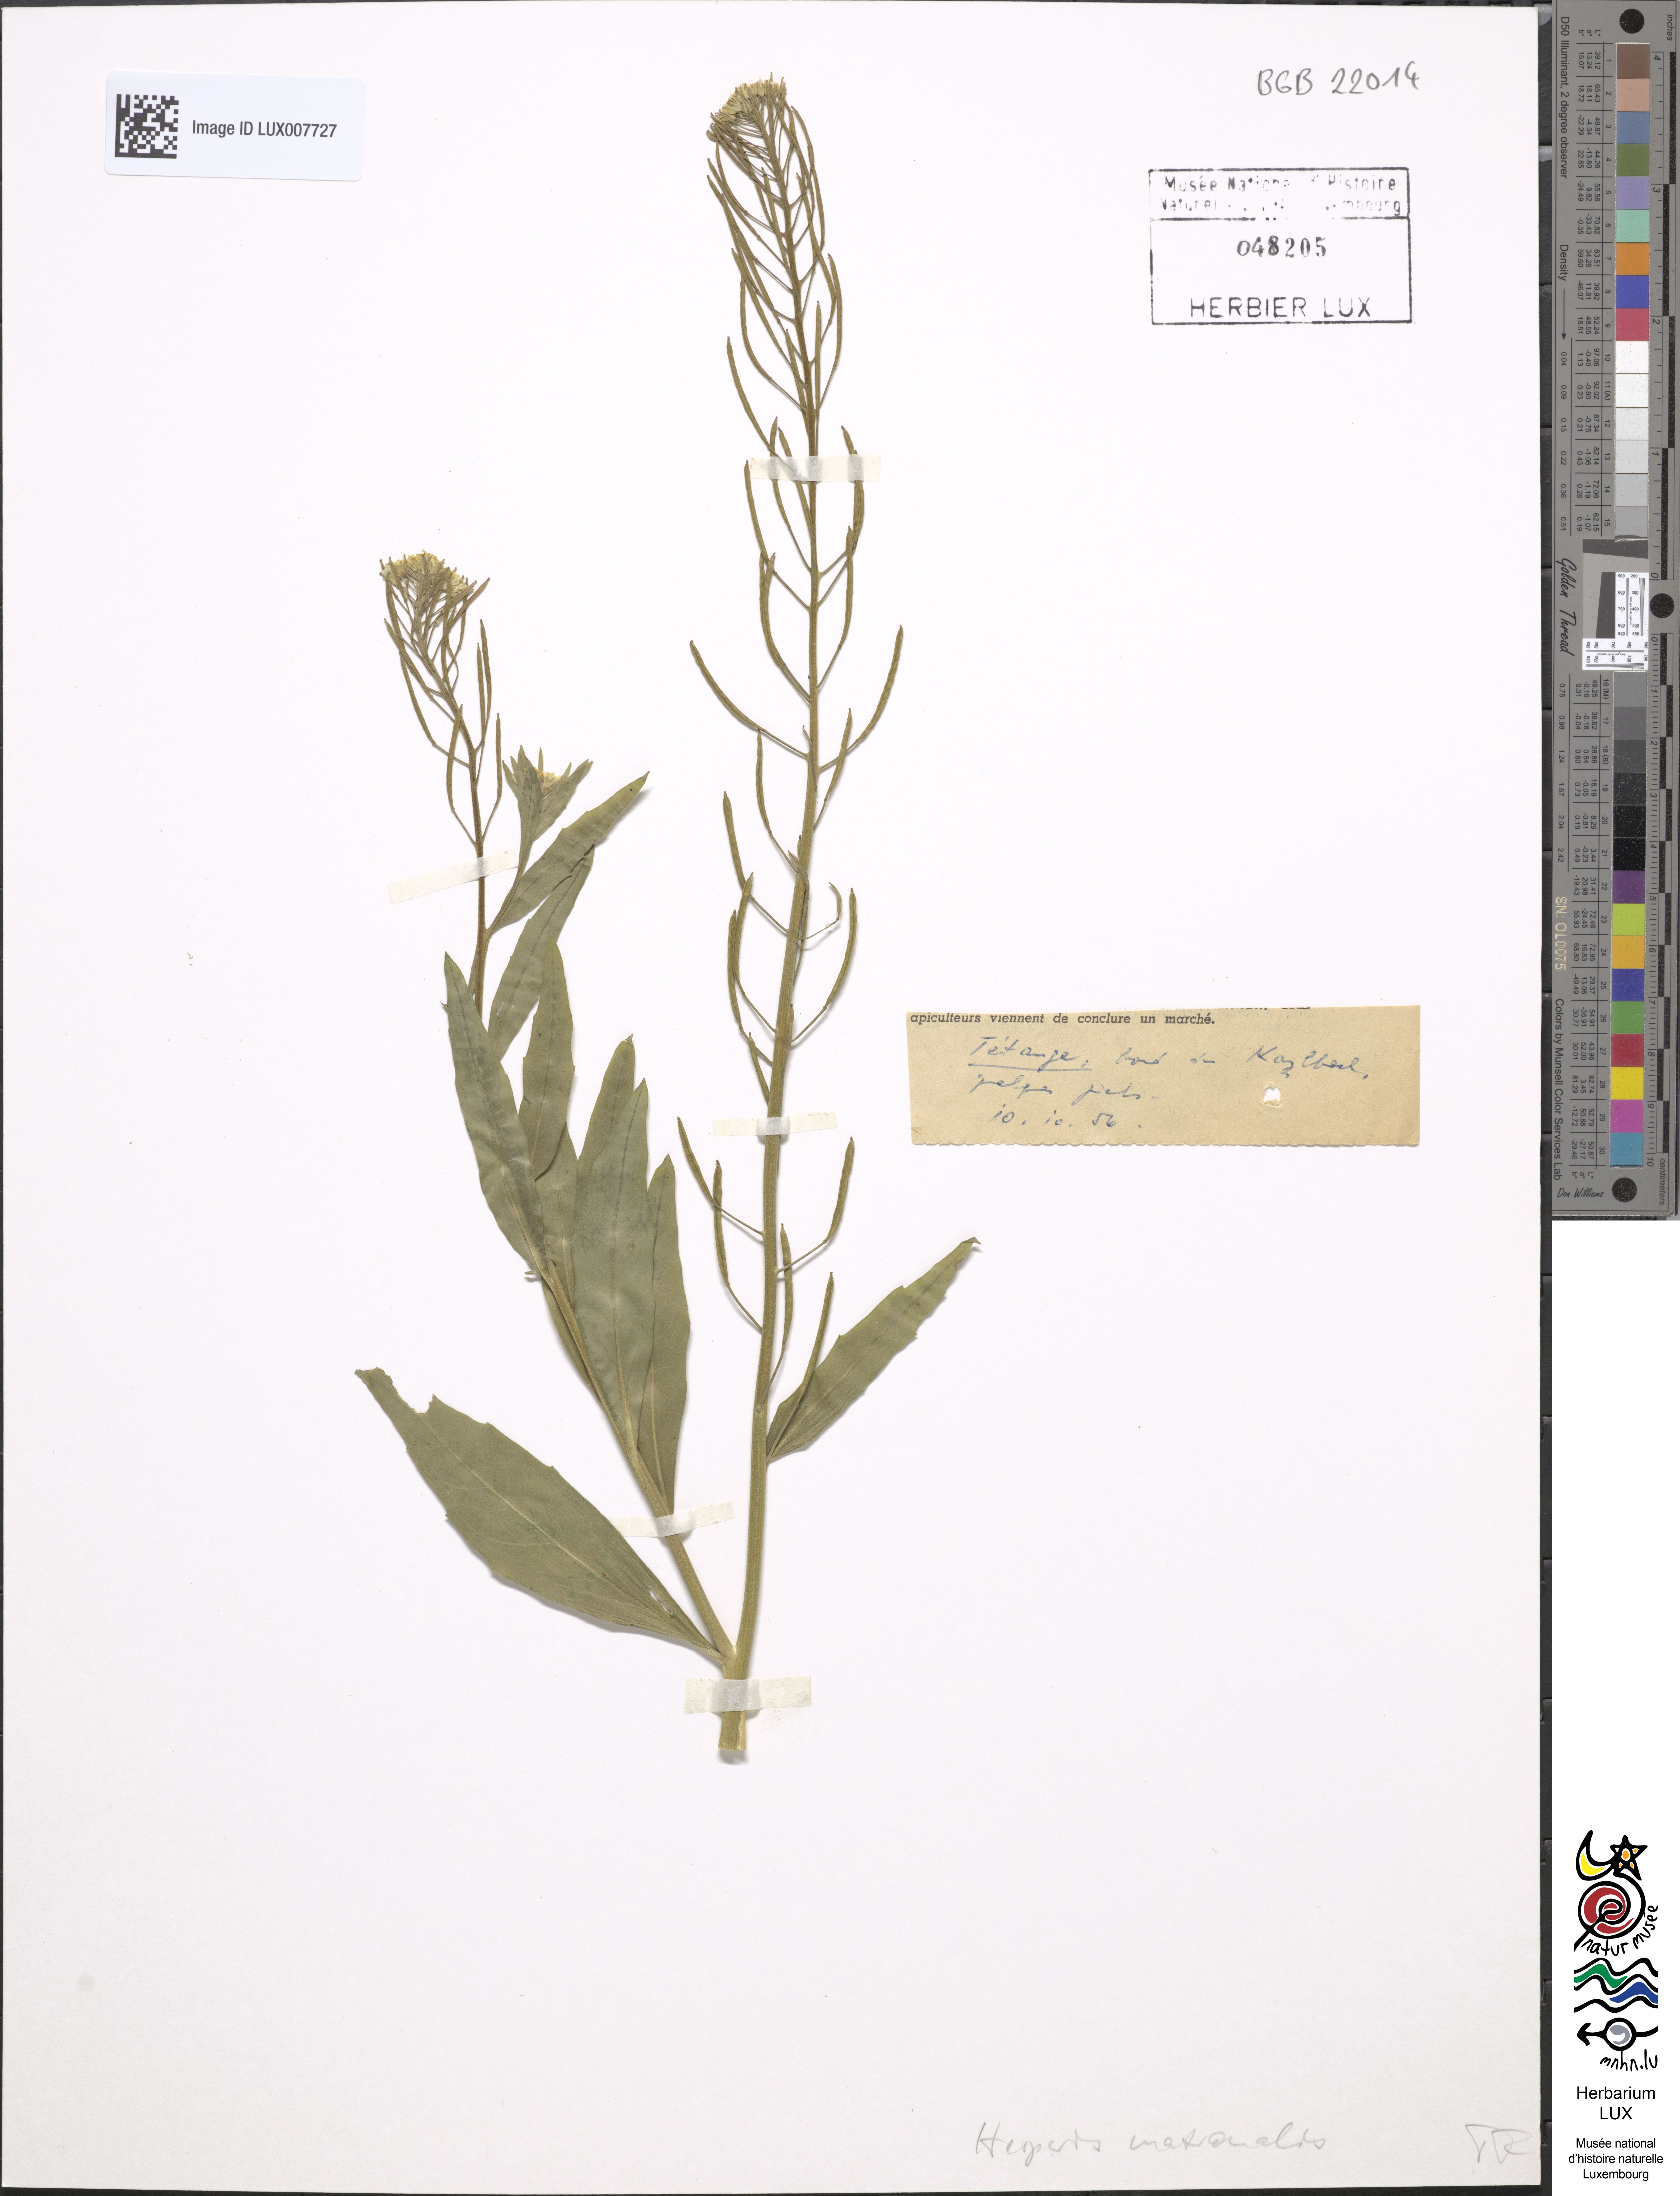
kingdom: Plantae
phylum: Tracheophyta
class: Magnoliopsida
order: Brassicales
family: Brassicaceae
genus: Hesperis
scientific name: Hesperis matronalis
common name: Dame's-violet
